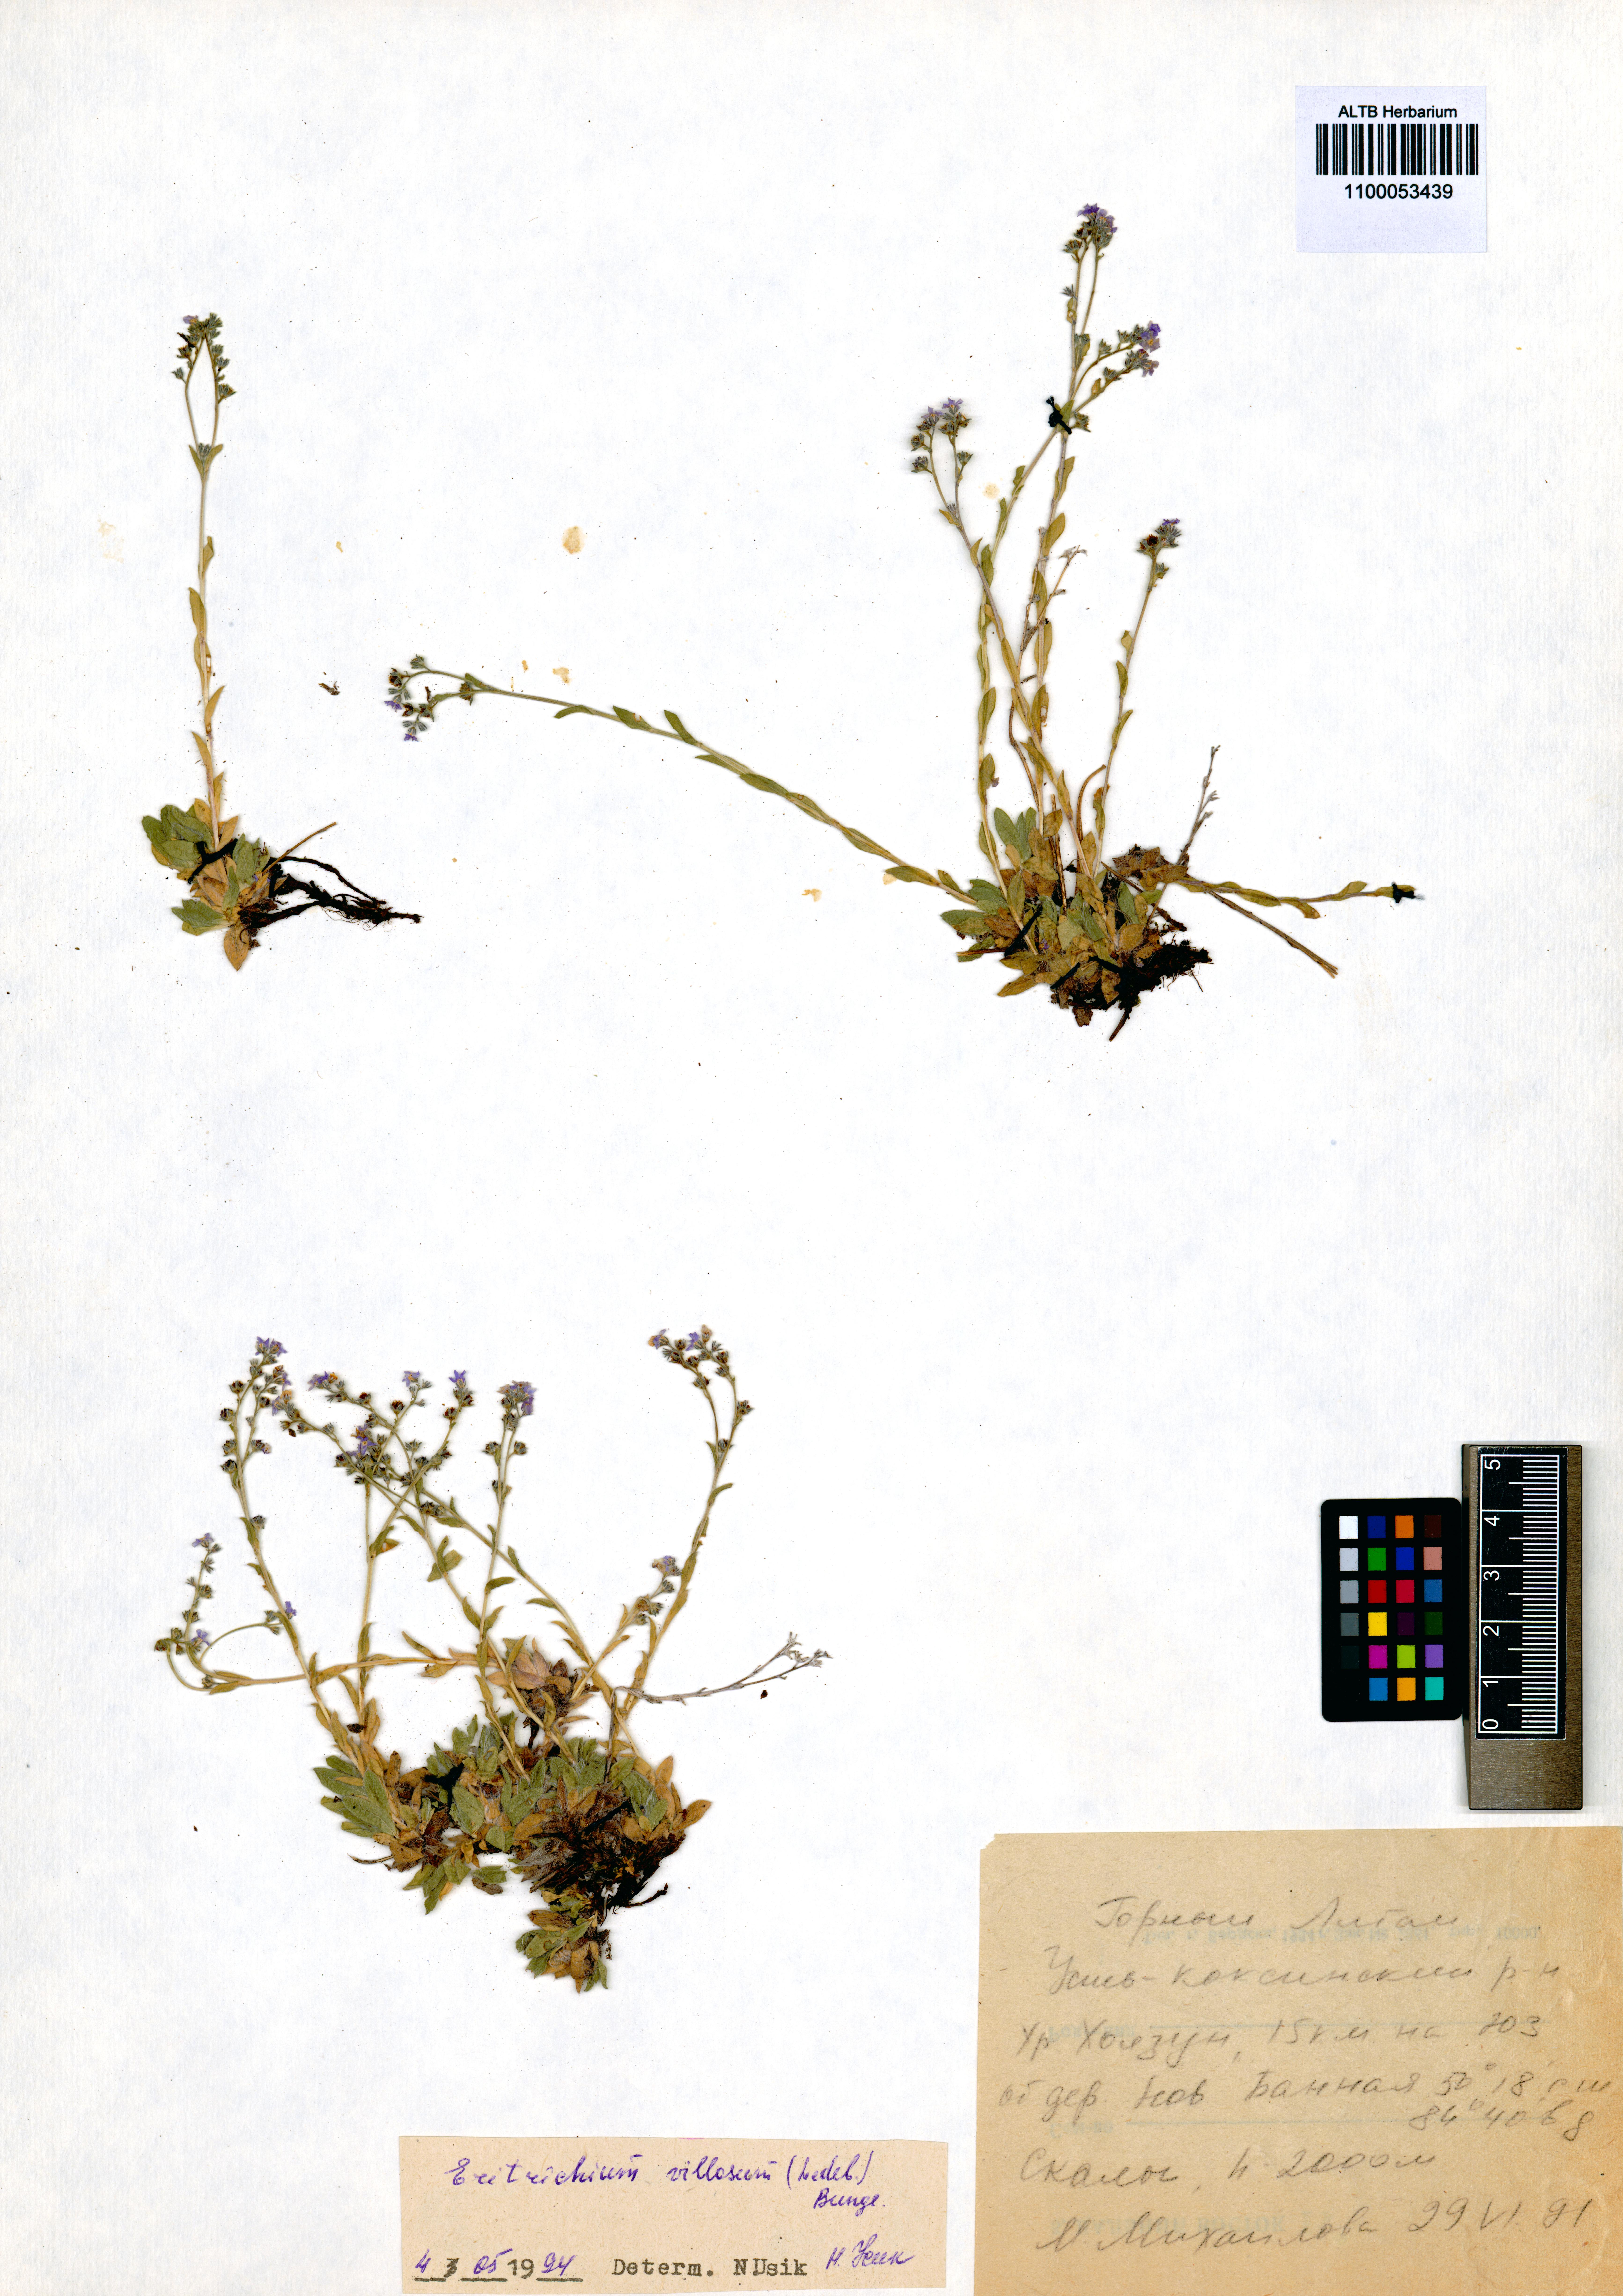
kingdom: Plantae
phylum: Tracheophyta
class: Magnoliopsida
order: Boraginales
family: Boraginaceae
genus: Eritrichium
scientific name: Eritrichium villosum
